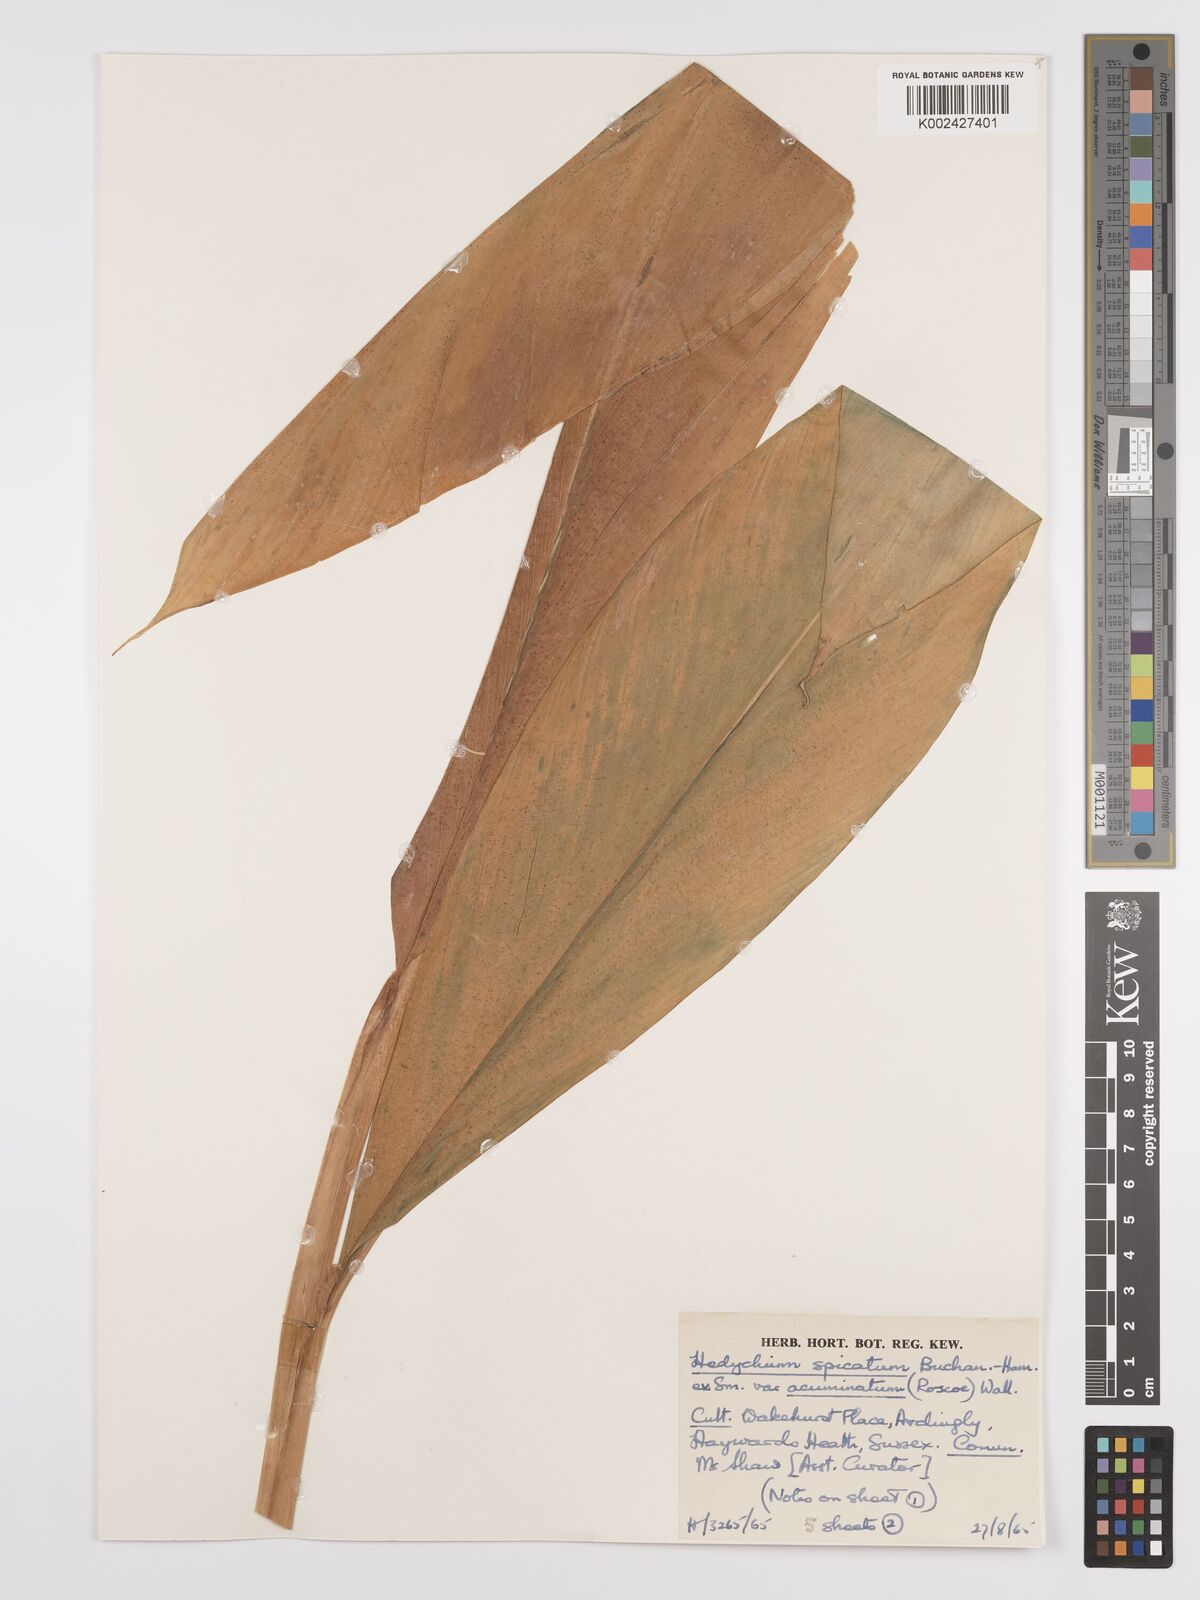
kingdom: Plantae
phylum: Tracheophyta
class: Liliopsida
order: Zingiberales
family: Zingiberaceae
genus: Hedychium
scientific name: Hedychium
